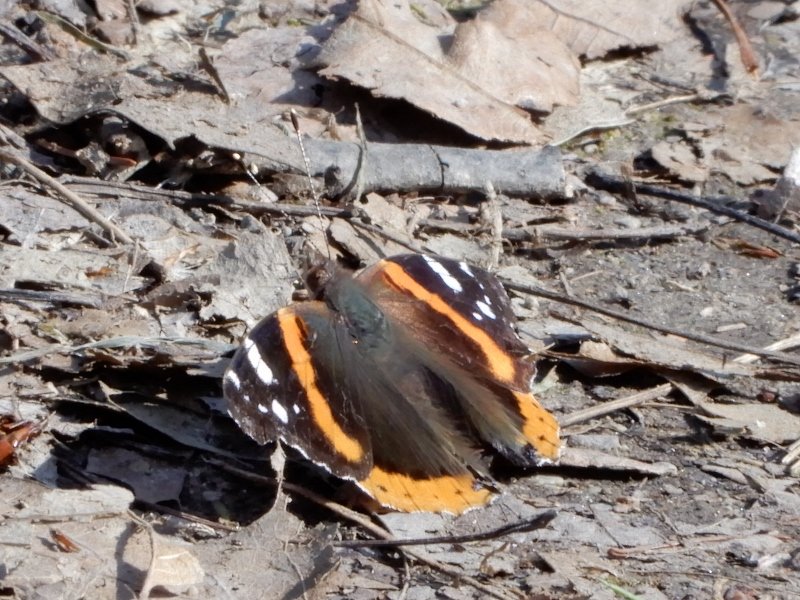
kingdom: Animalia
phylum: Arthropoda
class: Insecta
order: Lepidoptera
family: Nymphalidae
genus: Vanessa
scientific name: Vanessa atalanta
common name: Red Admiral
